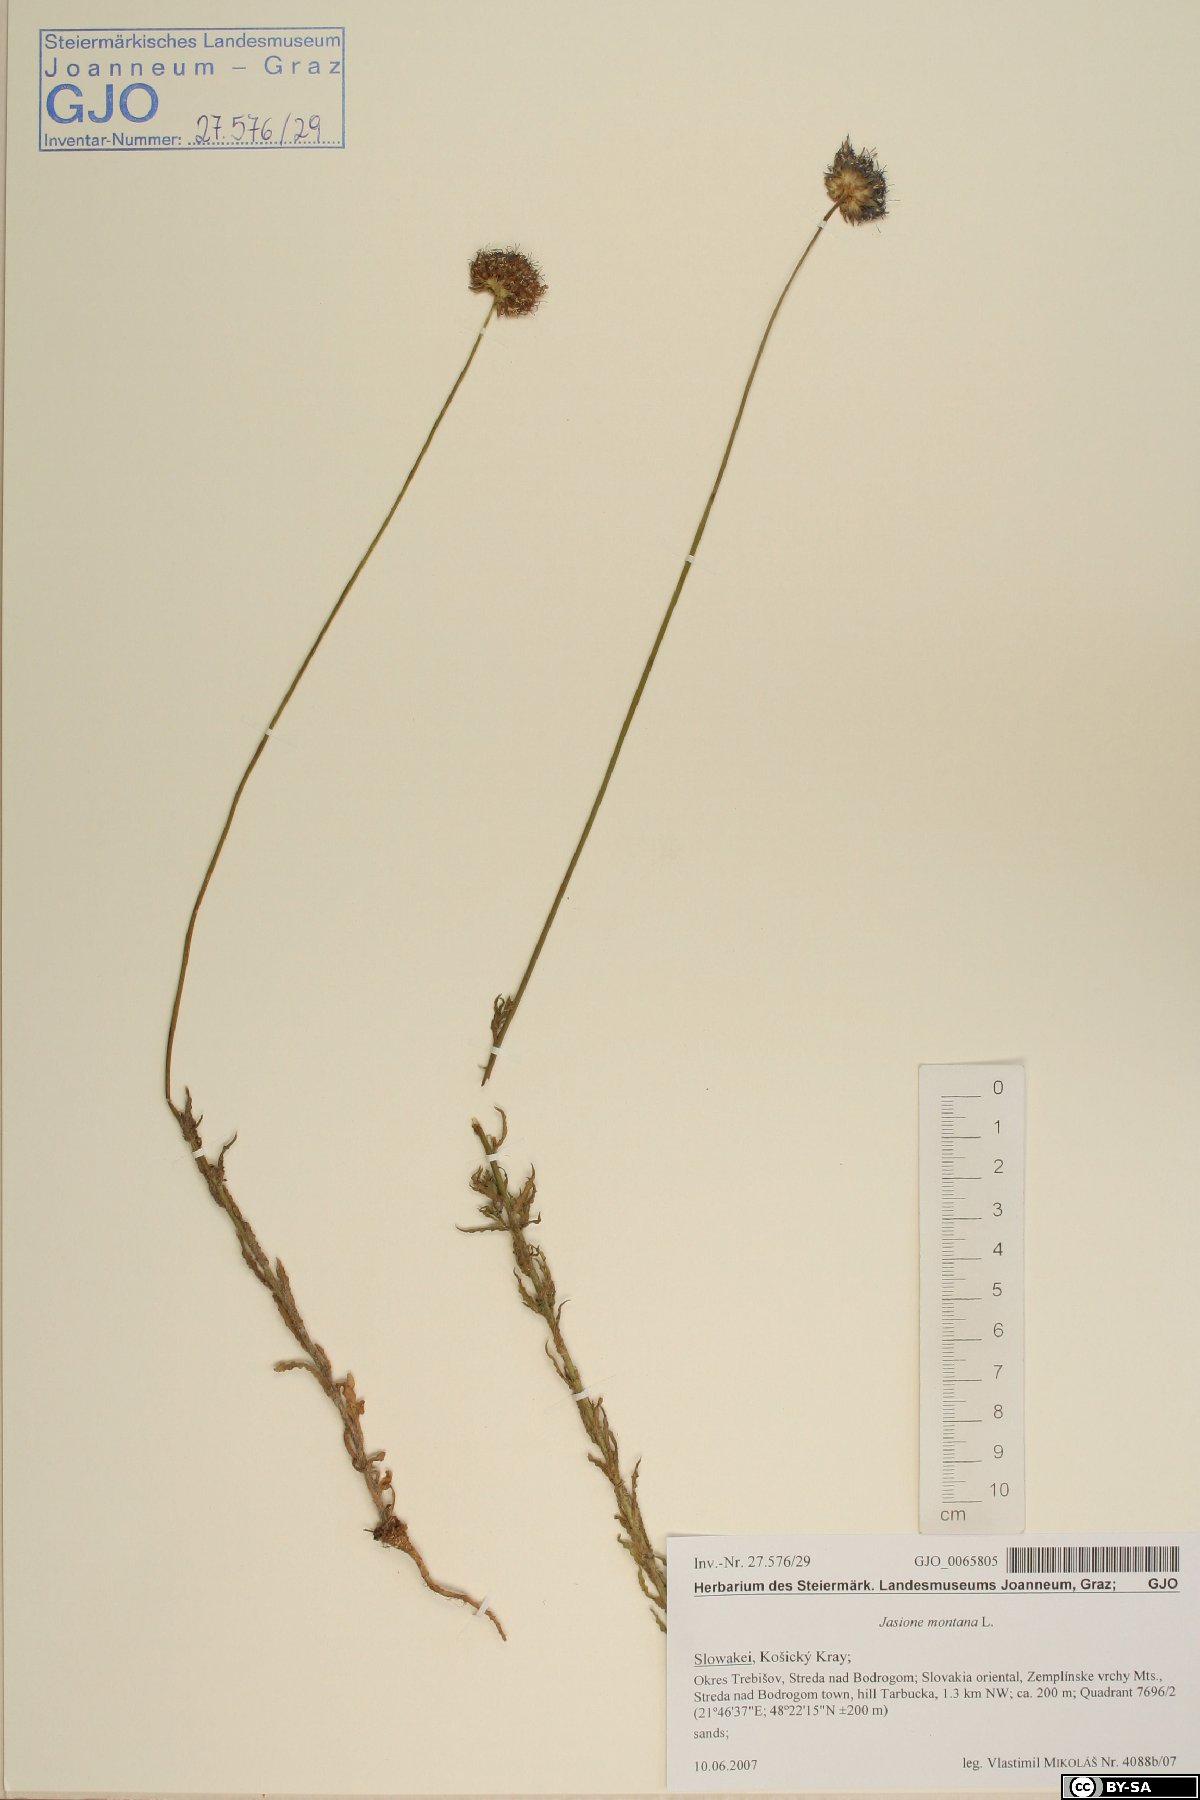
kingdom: Plantae
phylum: Tracheophyta
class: Magnoliopsida
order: Asterales
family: Campanulaceae
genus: Jasione
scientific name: Jasione montana
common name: Sheep's-bit
